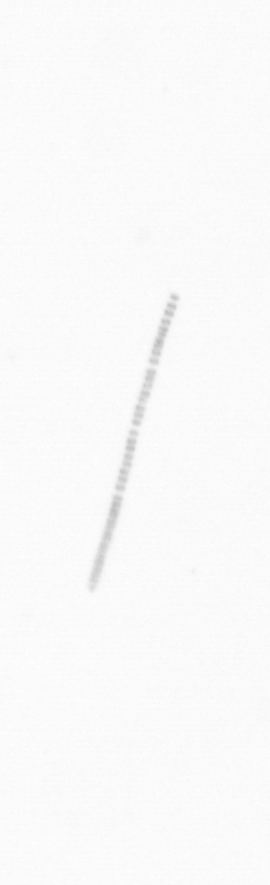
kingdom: Chromista
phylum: Ochrophyta
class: Bacillariophyceae
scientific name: Bacillariophyceae
